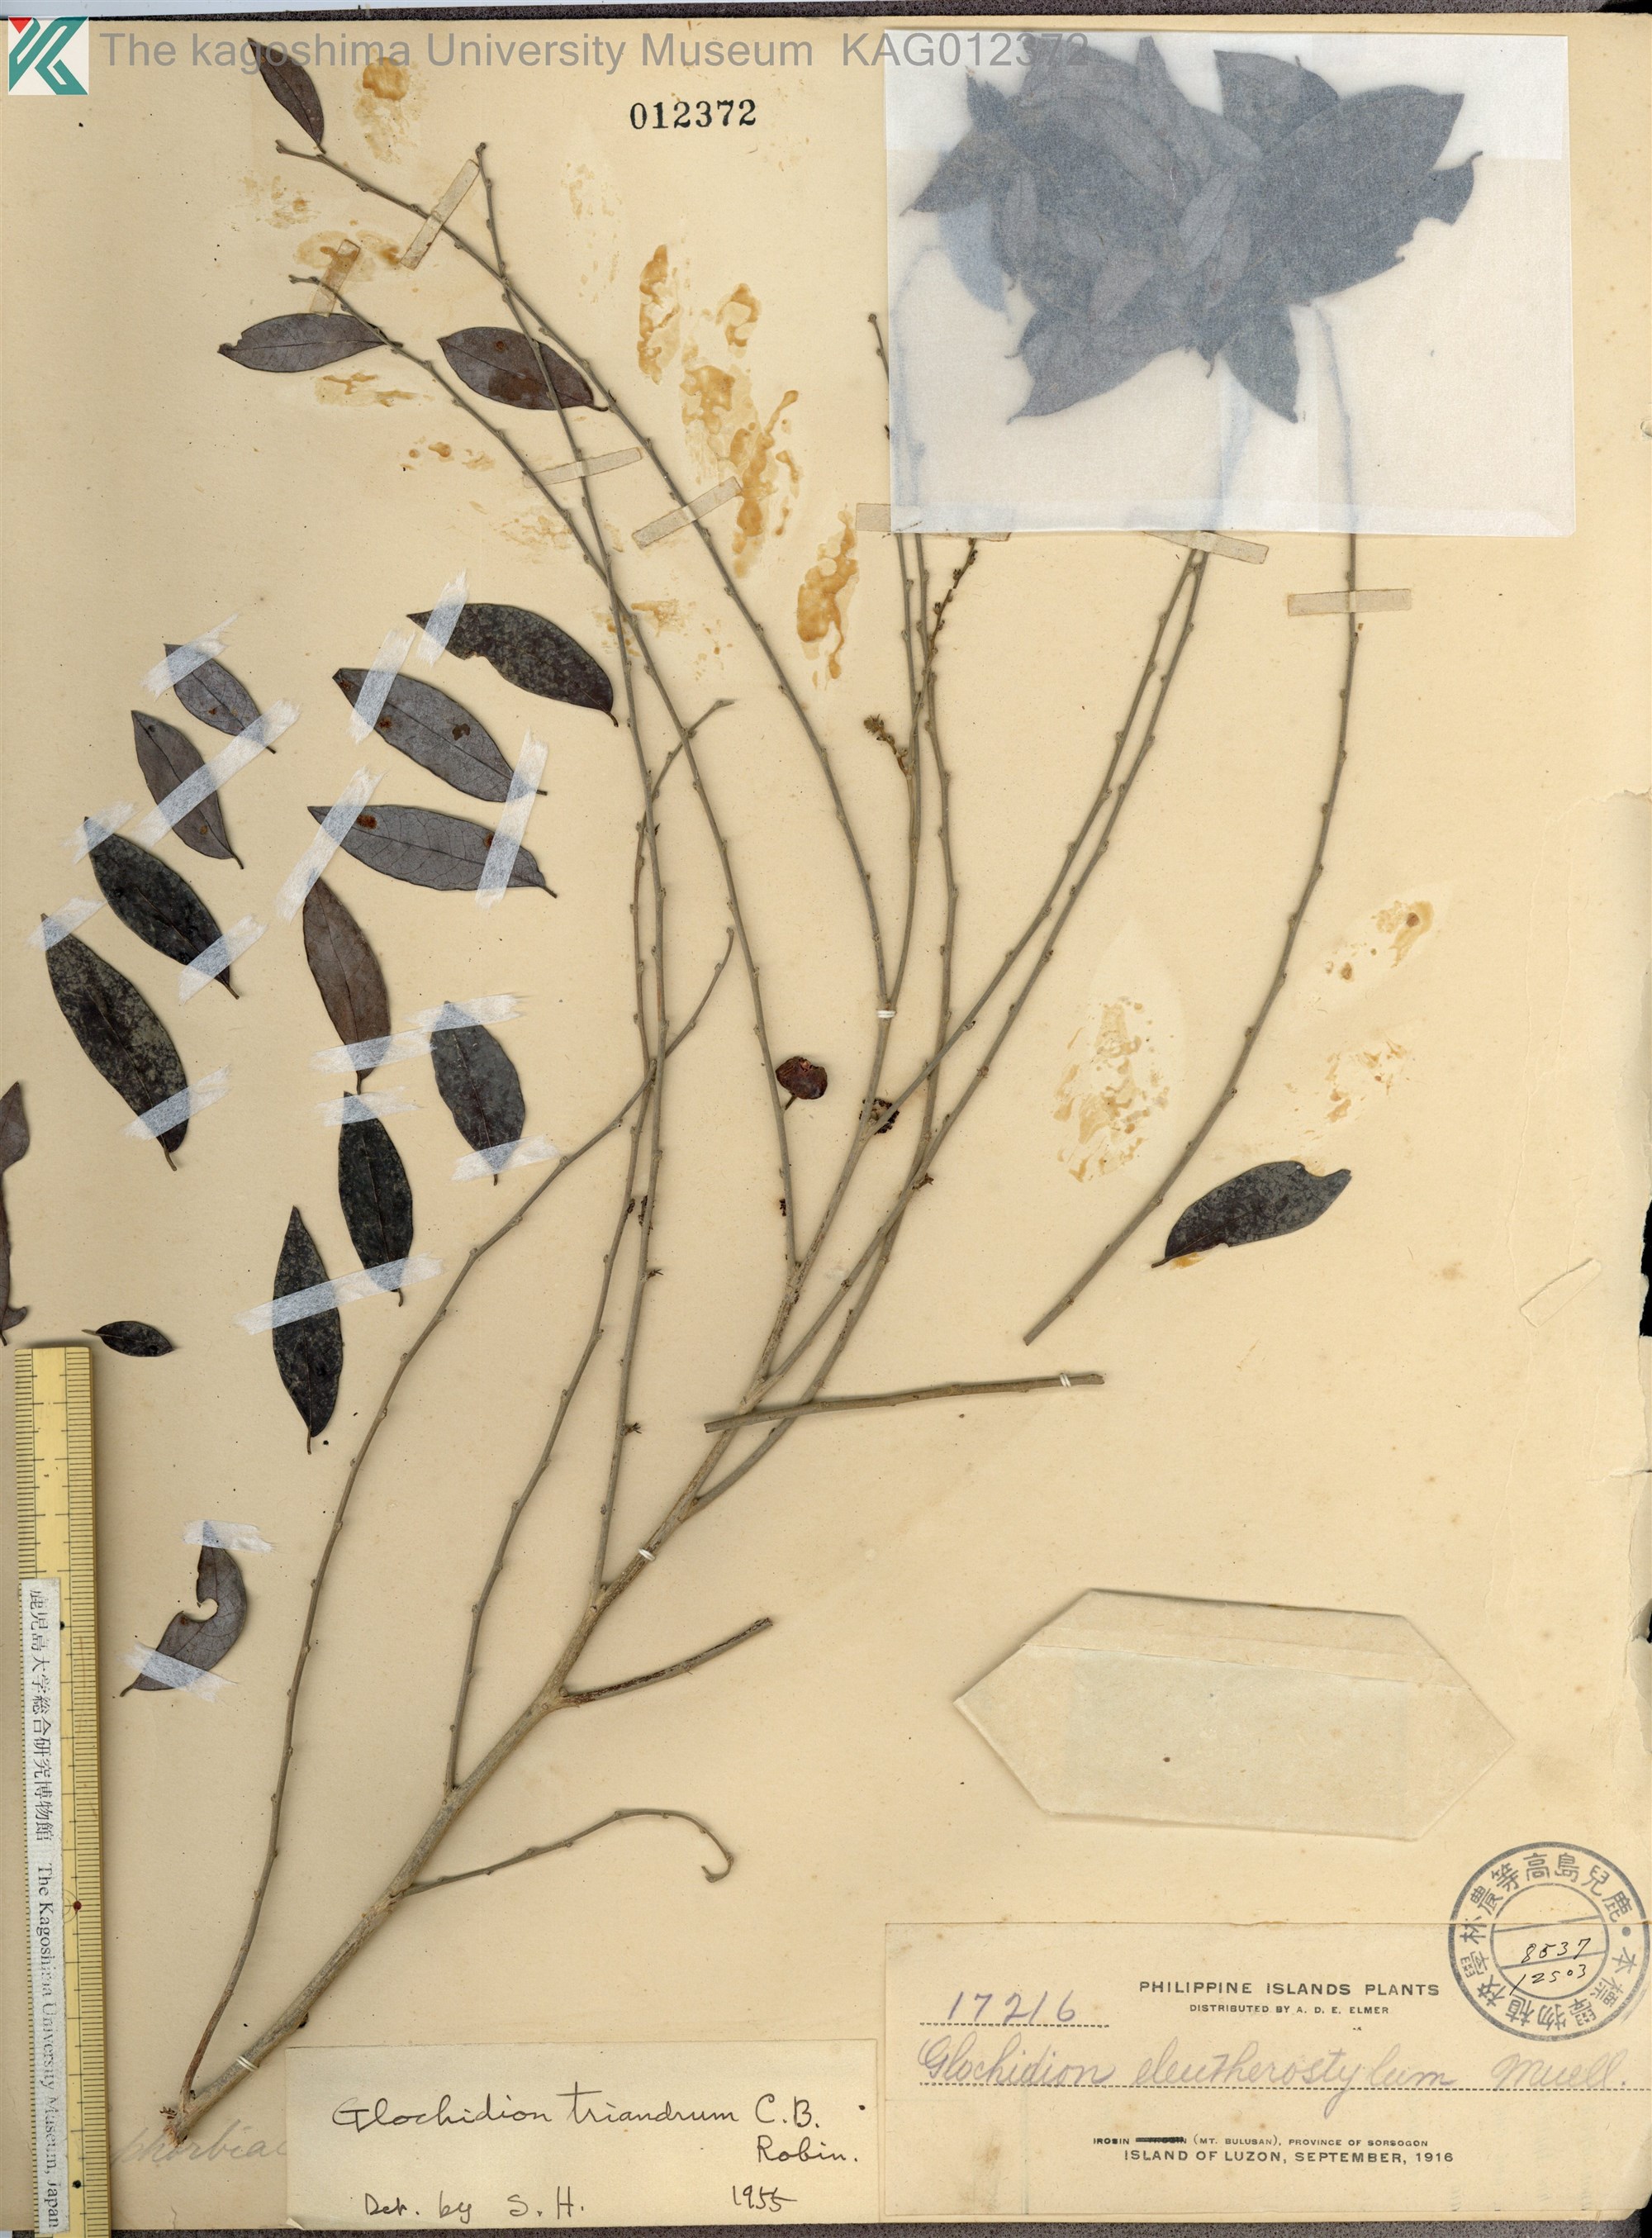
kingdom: Plantae
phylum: Tracheophyta
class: Magnoliopsida
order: Malpighiales
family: Phyllanthaceae
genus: Glochidion
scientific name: Glochidion triandrum
